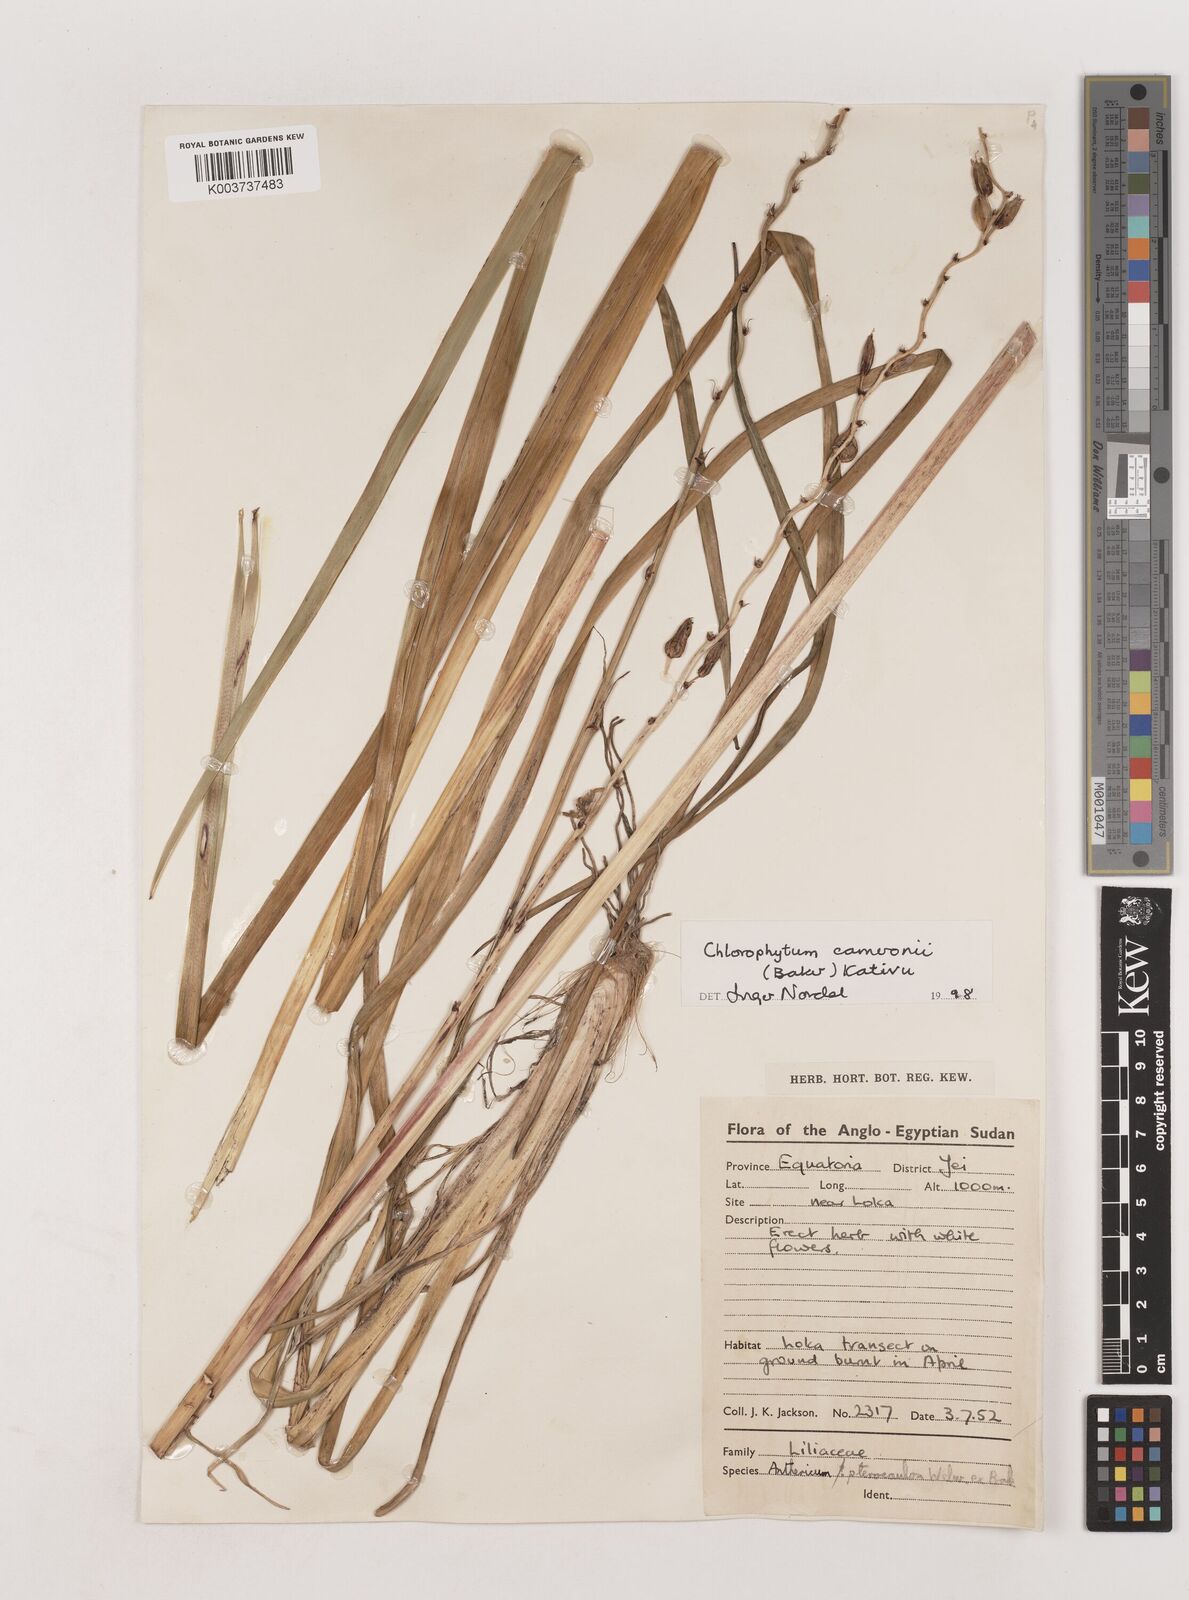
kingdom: Plantae
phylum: Tracheophyta
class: Liliopsida
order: Asparagales
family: Asparagaceae
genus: Chlorophytum
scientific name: Chlorophytum cameronii
